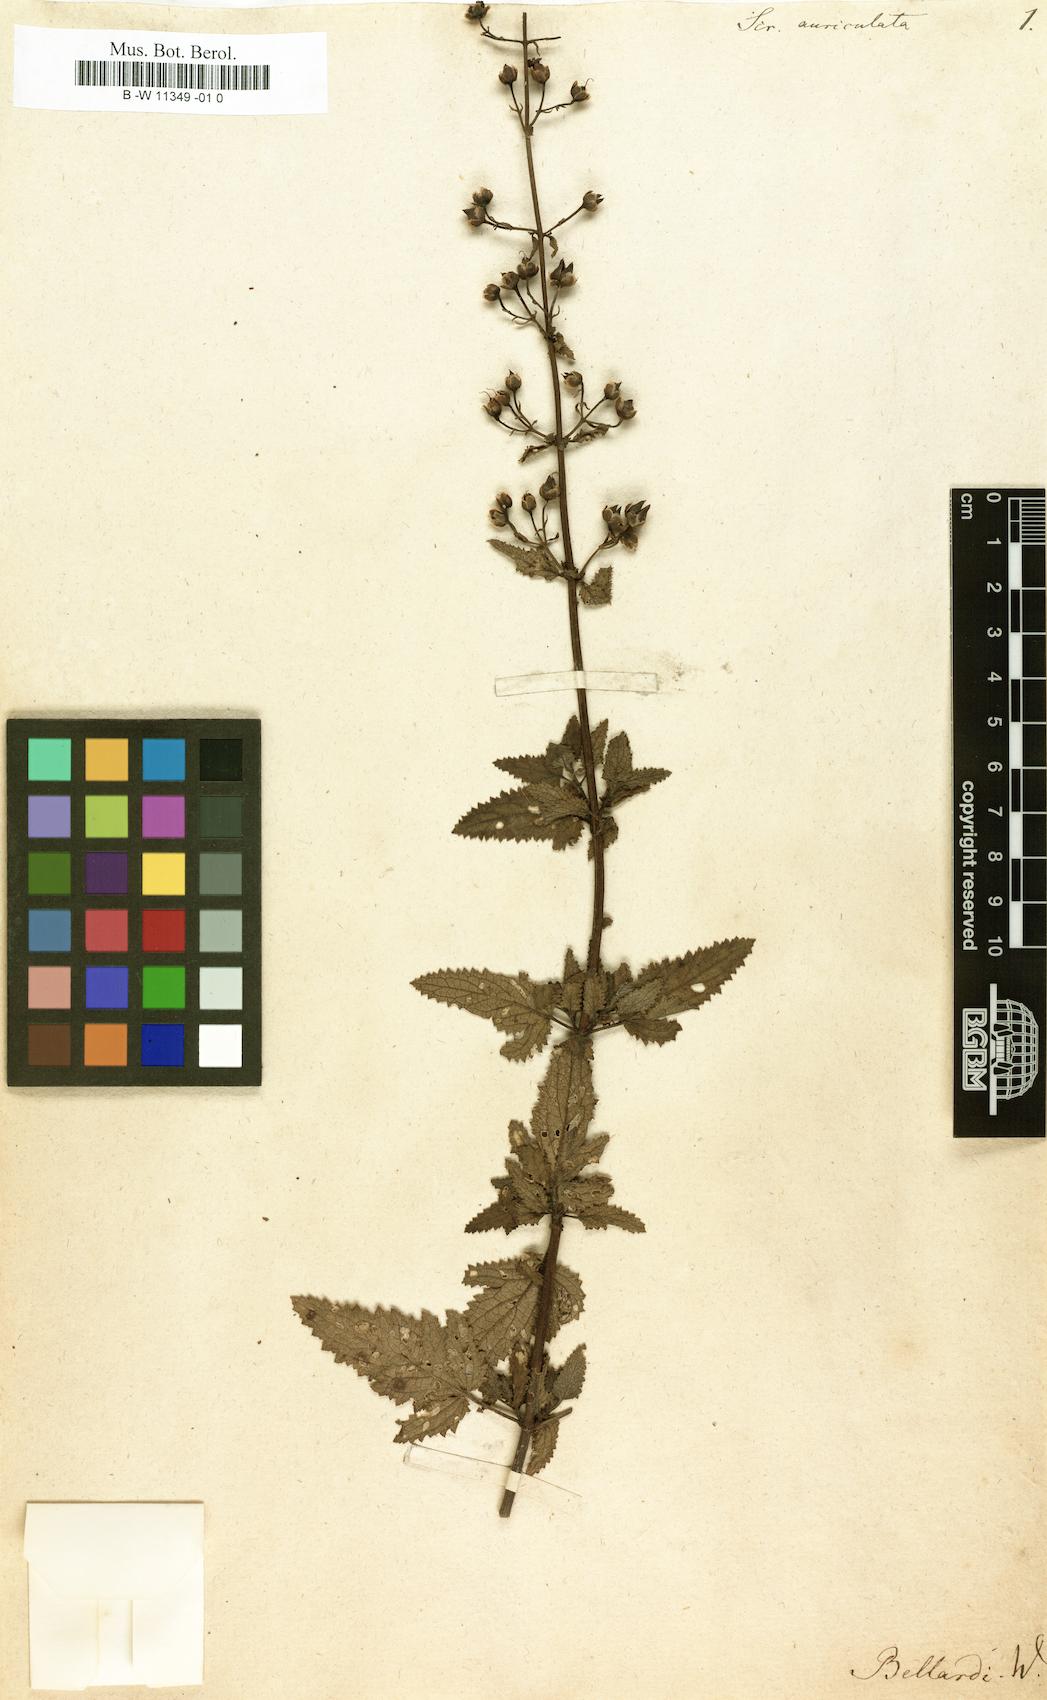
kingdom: Plantae
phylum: Tracheophyta
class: Magnoliopsida
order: Lamiales
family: Scrophulariaceae
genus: Scrophularia
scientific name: Scrophularia auriculata
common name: Water betony
